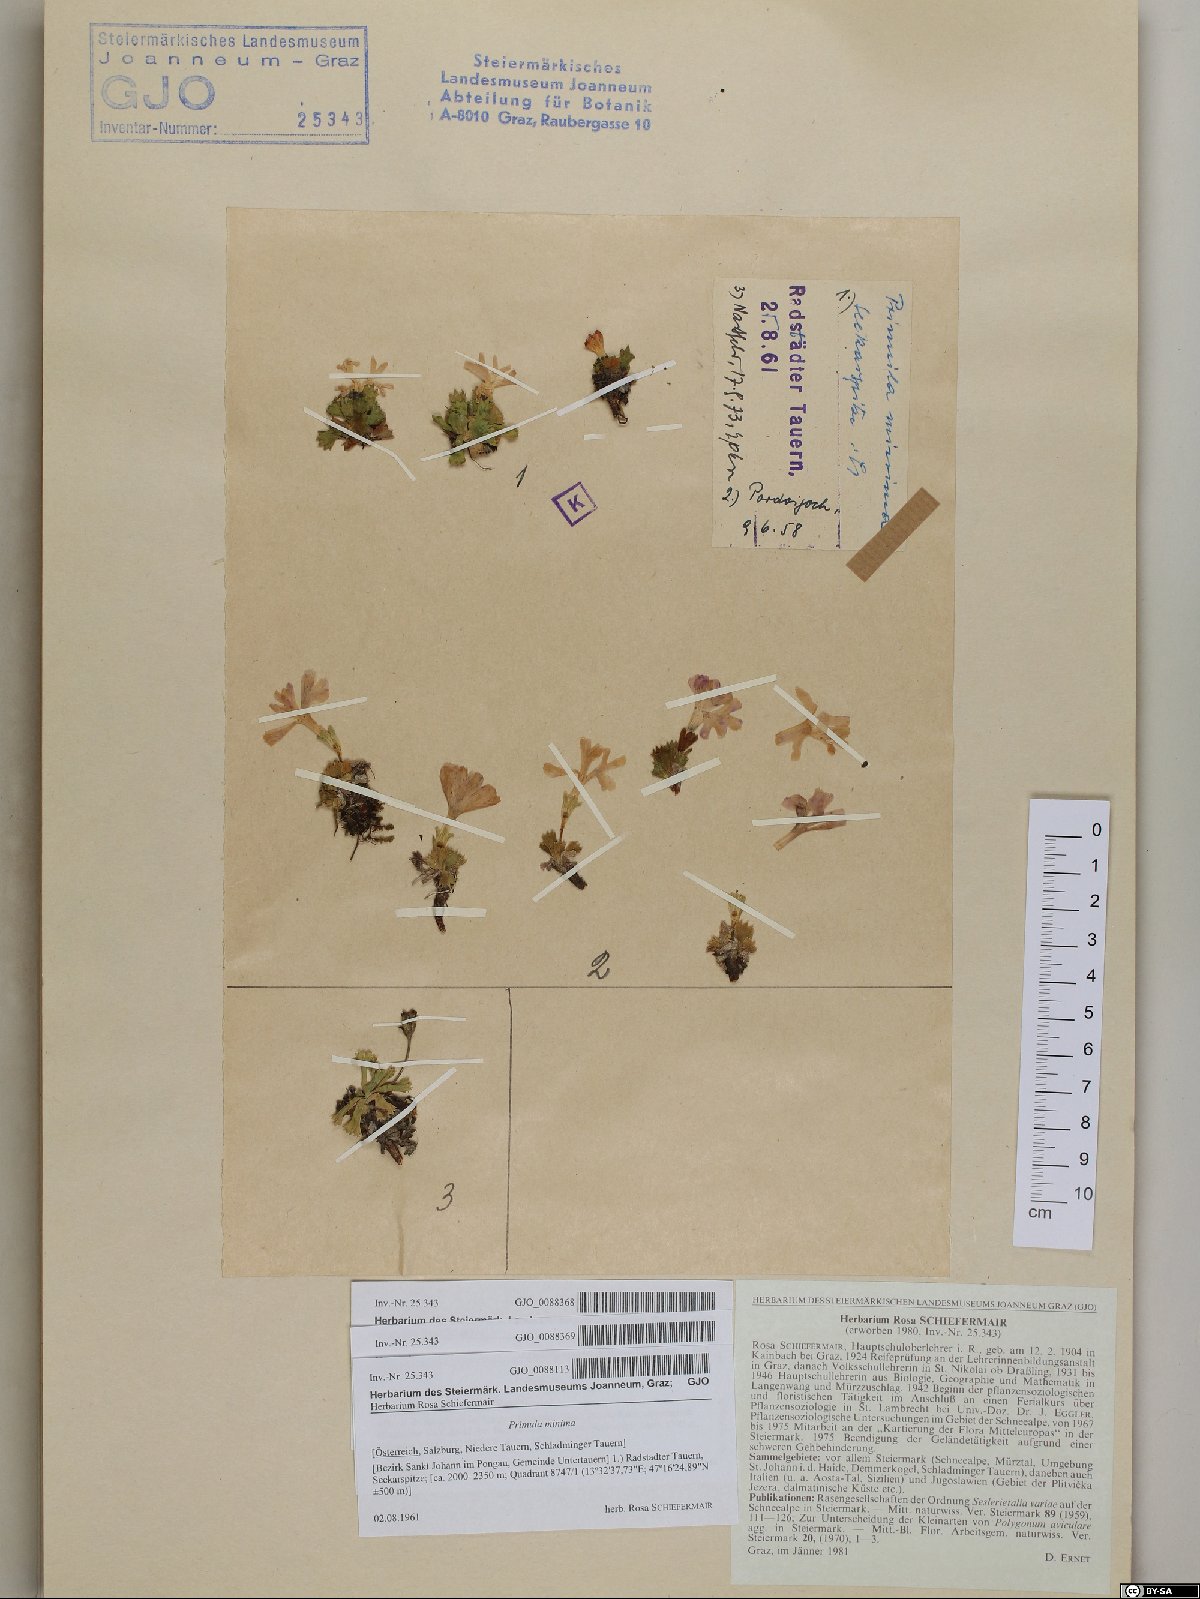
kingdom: Plantae
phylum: Tracheophyta
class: Magnoliopsida
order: Ericales
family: Primulaceae
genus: Primula
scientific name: Primula minima
